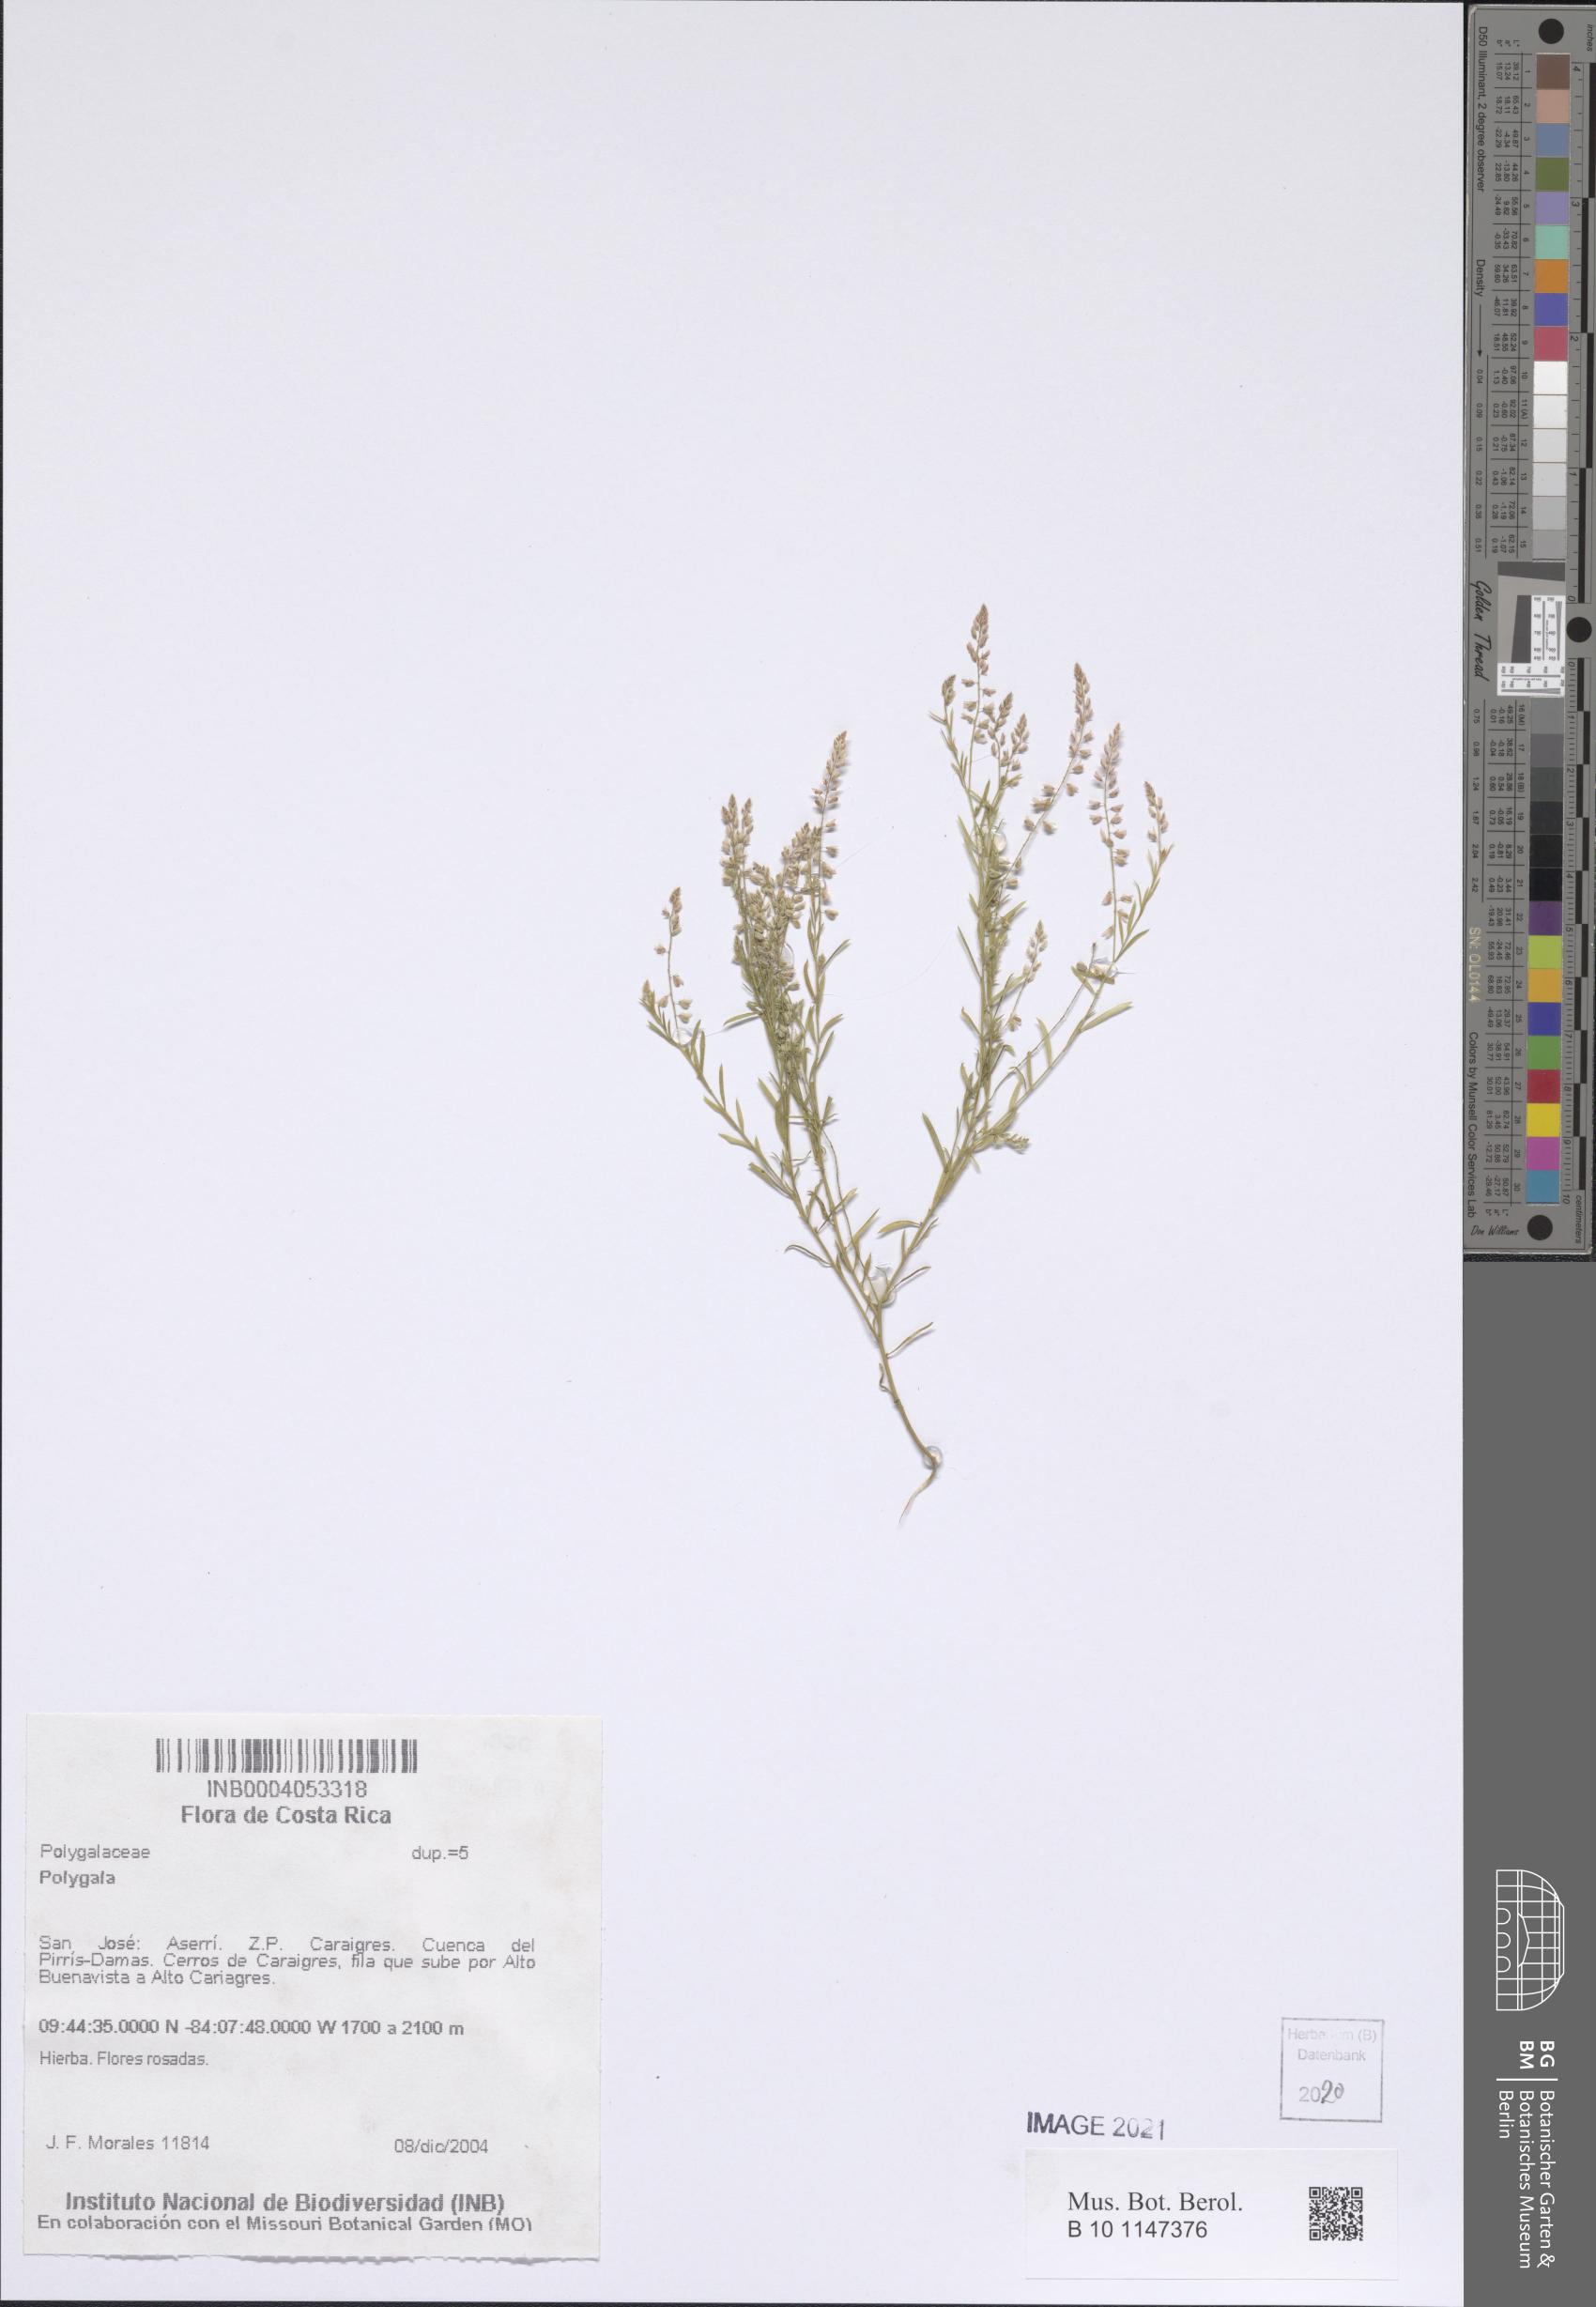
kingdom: Plantae
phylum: Tracheophyta
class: Magnoliopsida
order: Fabales
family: Polygalaceae
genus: Polygala
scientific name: Polygala
